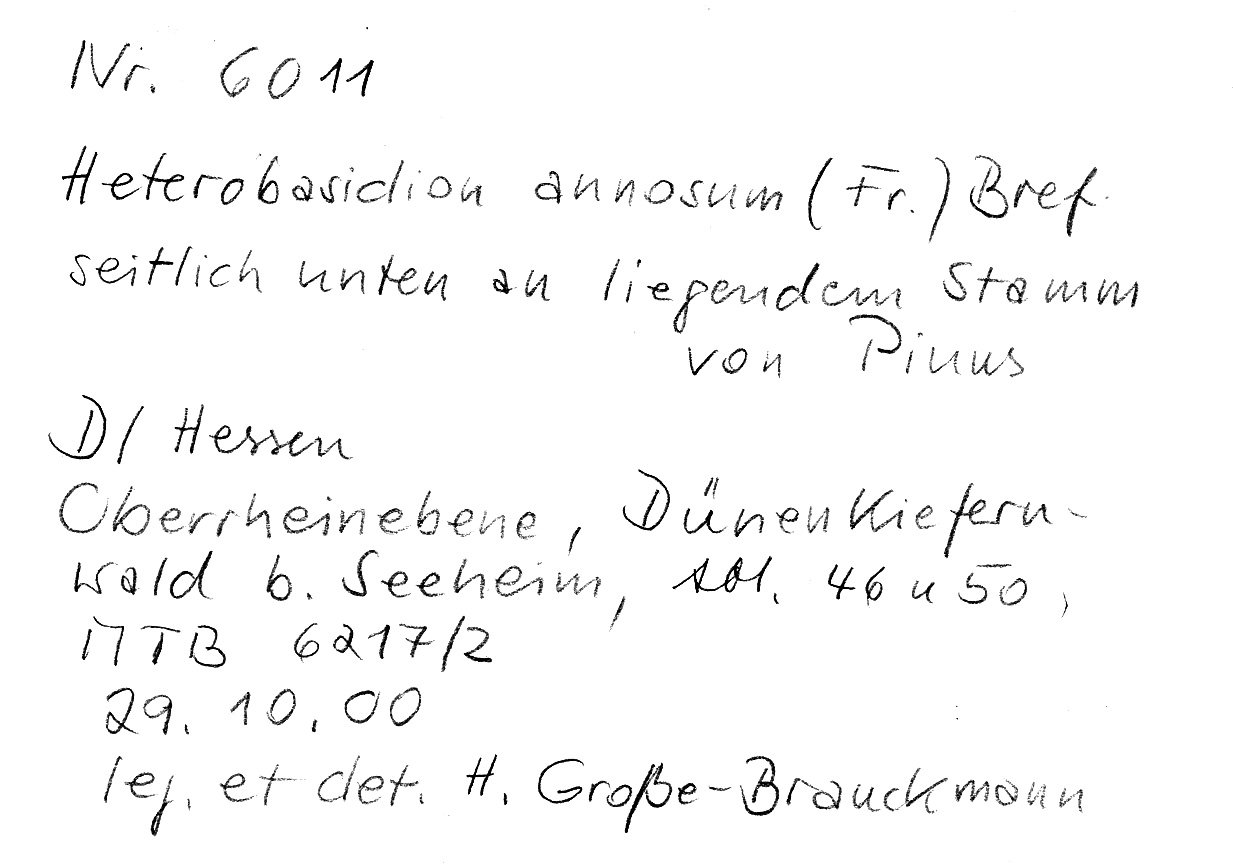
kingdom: Plantae
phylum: Tracheophyta
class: Pinopsida
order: Pinales
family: Pinaceae
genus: Pinus
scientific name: Pinus
